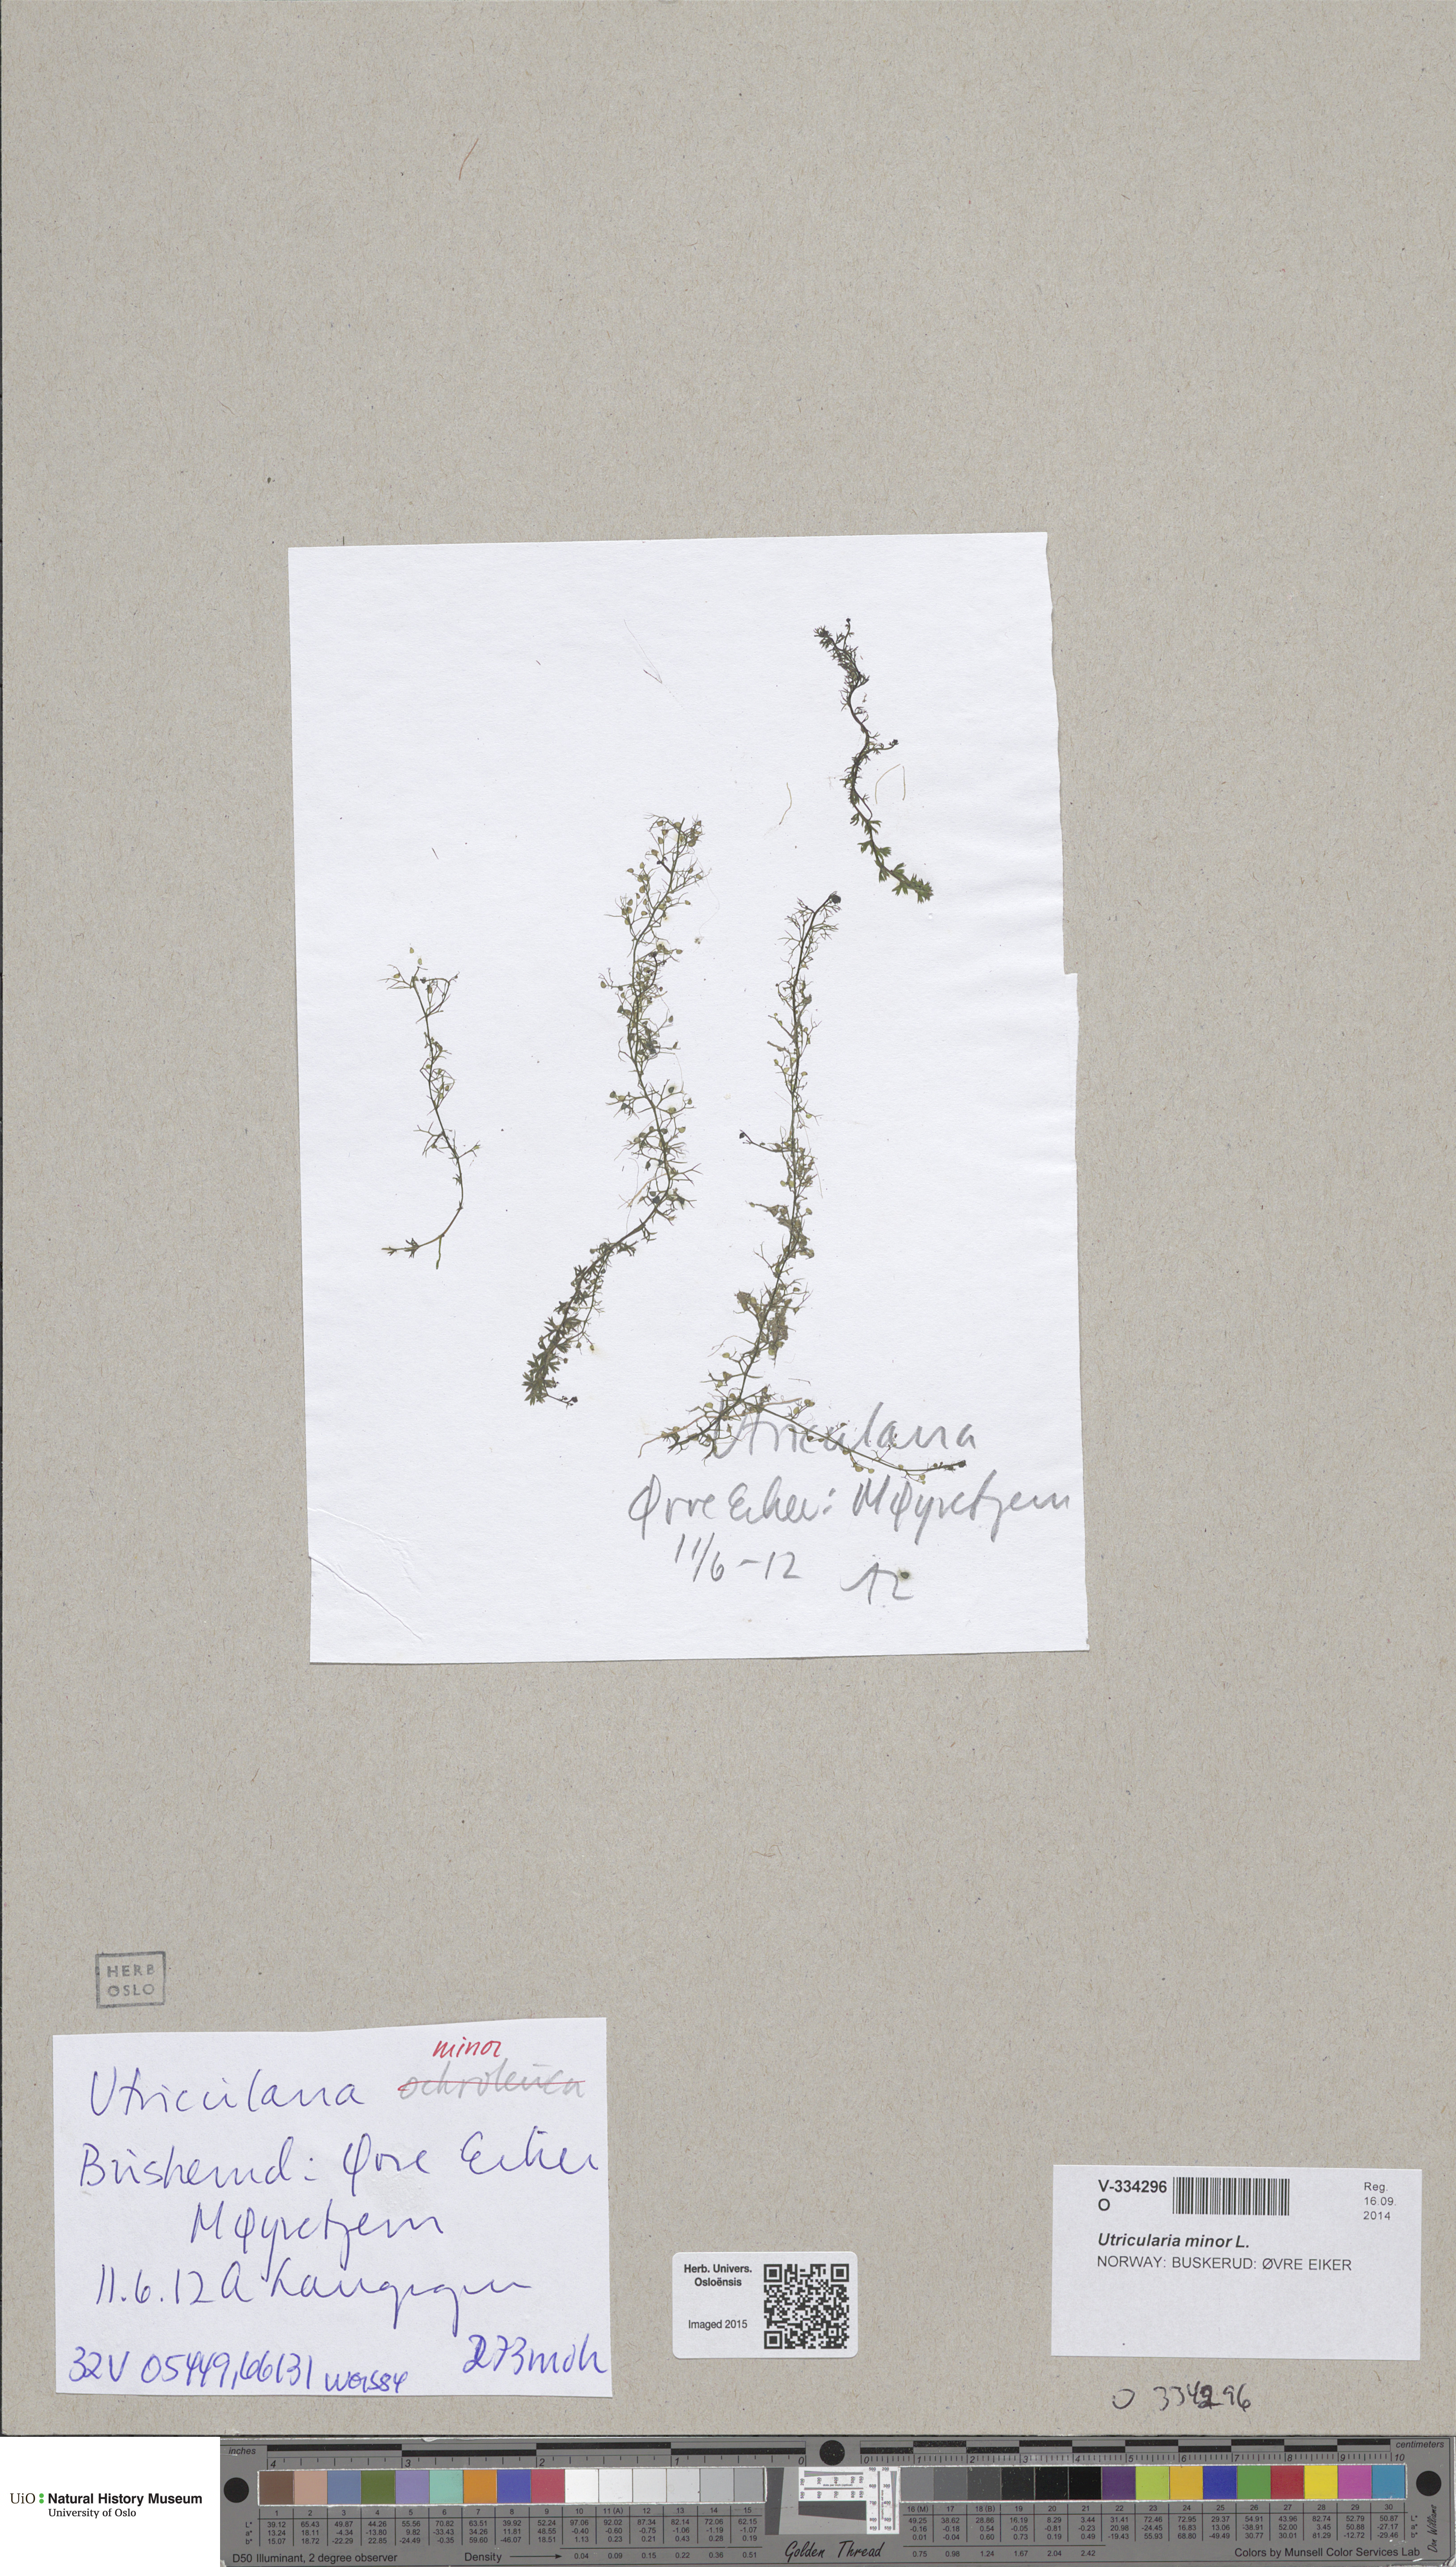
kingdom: Plantae
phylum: Tracheophyta
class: Magnoliopsida
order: Lamiales
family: Lentibulariaceae
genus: Utricularia
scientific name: Utricularia minor
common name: Lesser bladderwort
